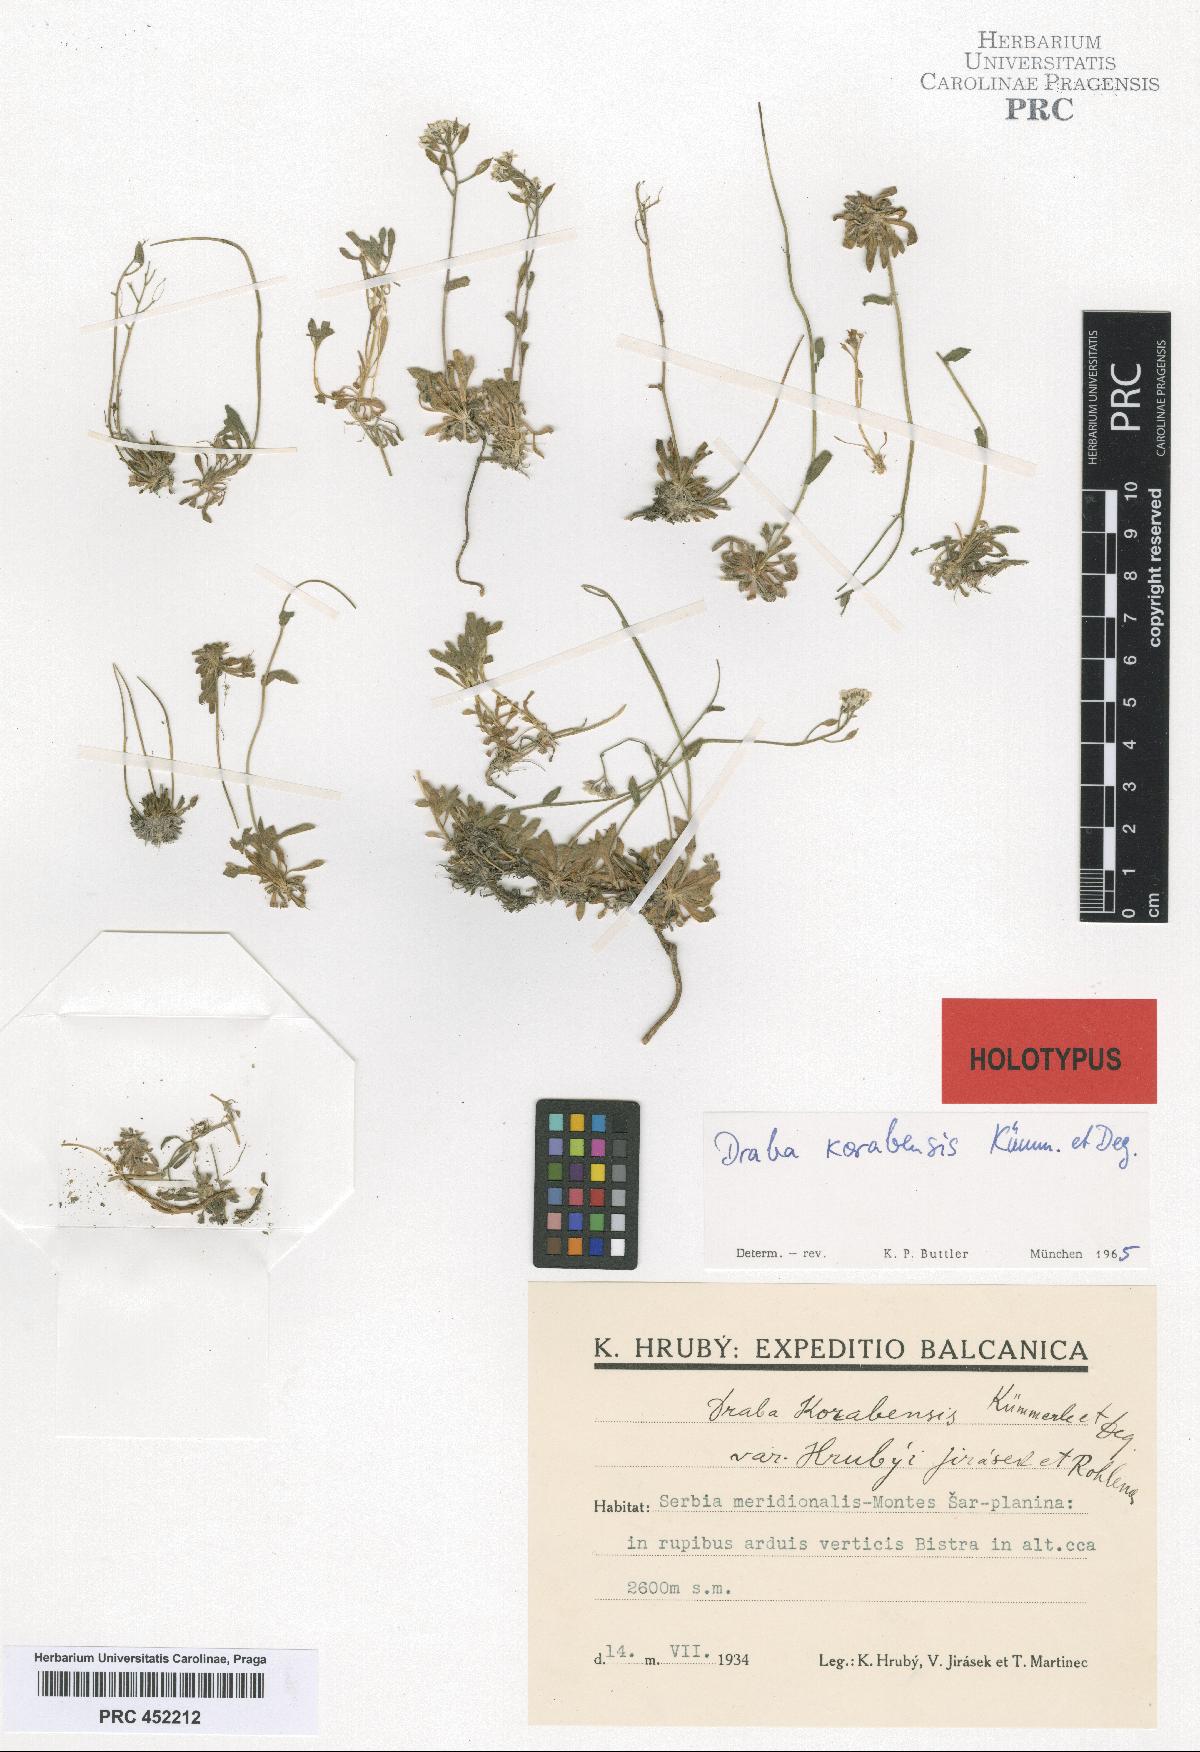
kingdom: Plantae
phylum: Tracheophyta
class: Magnoliopsida
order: Brassicales
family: Brassicaceae
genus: Draba
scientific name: Draba korabensis
